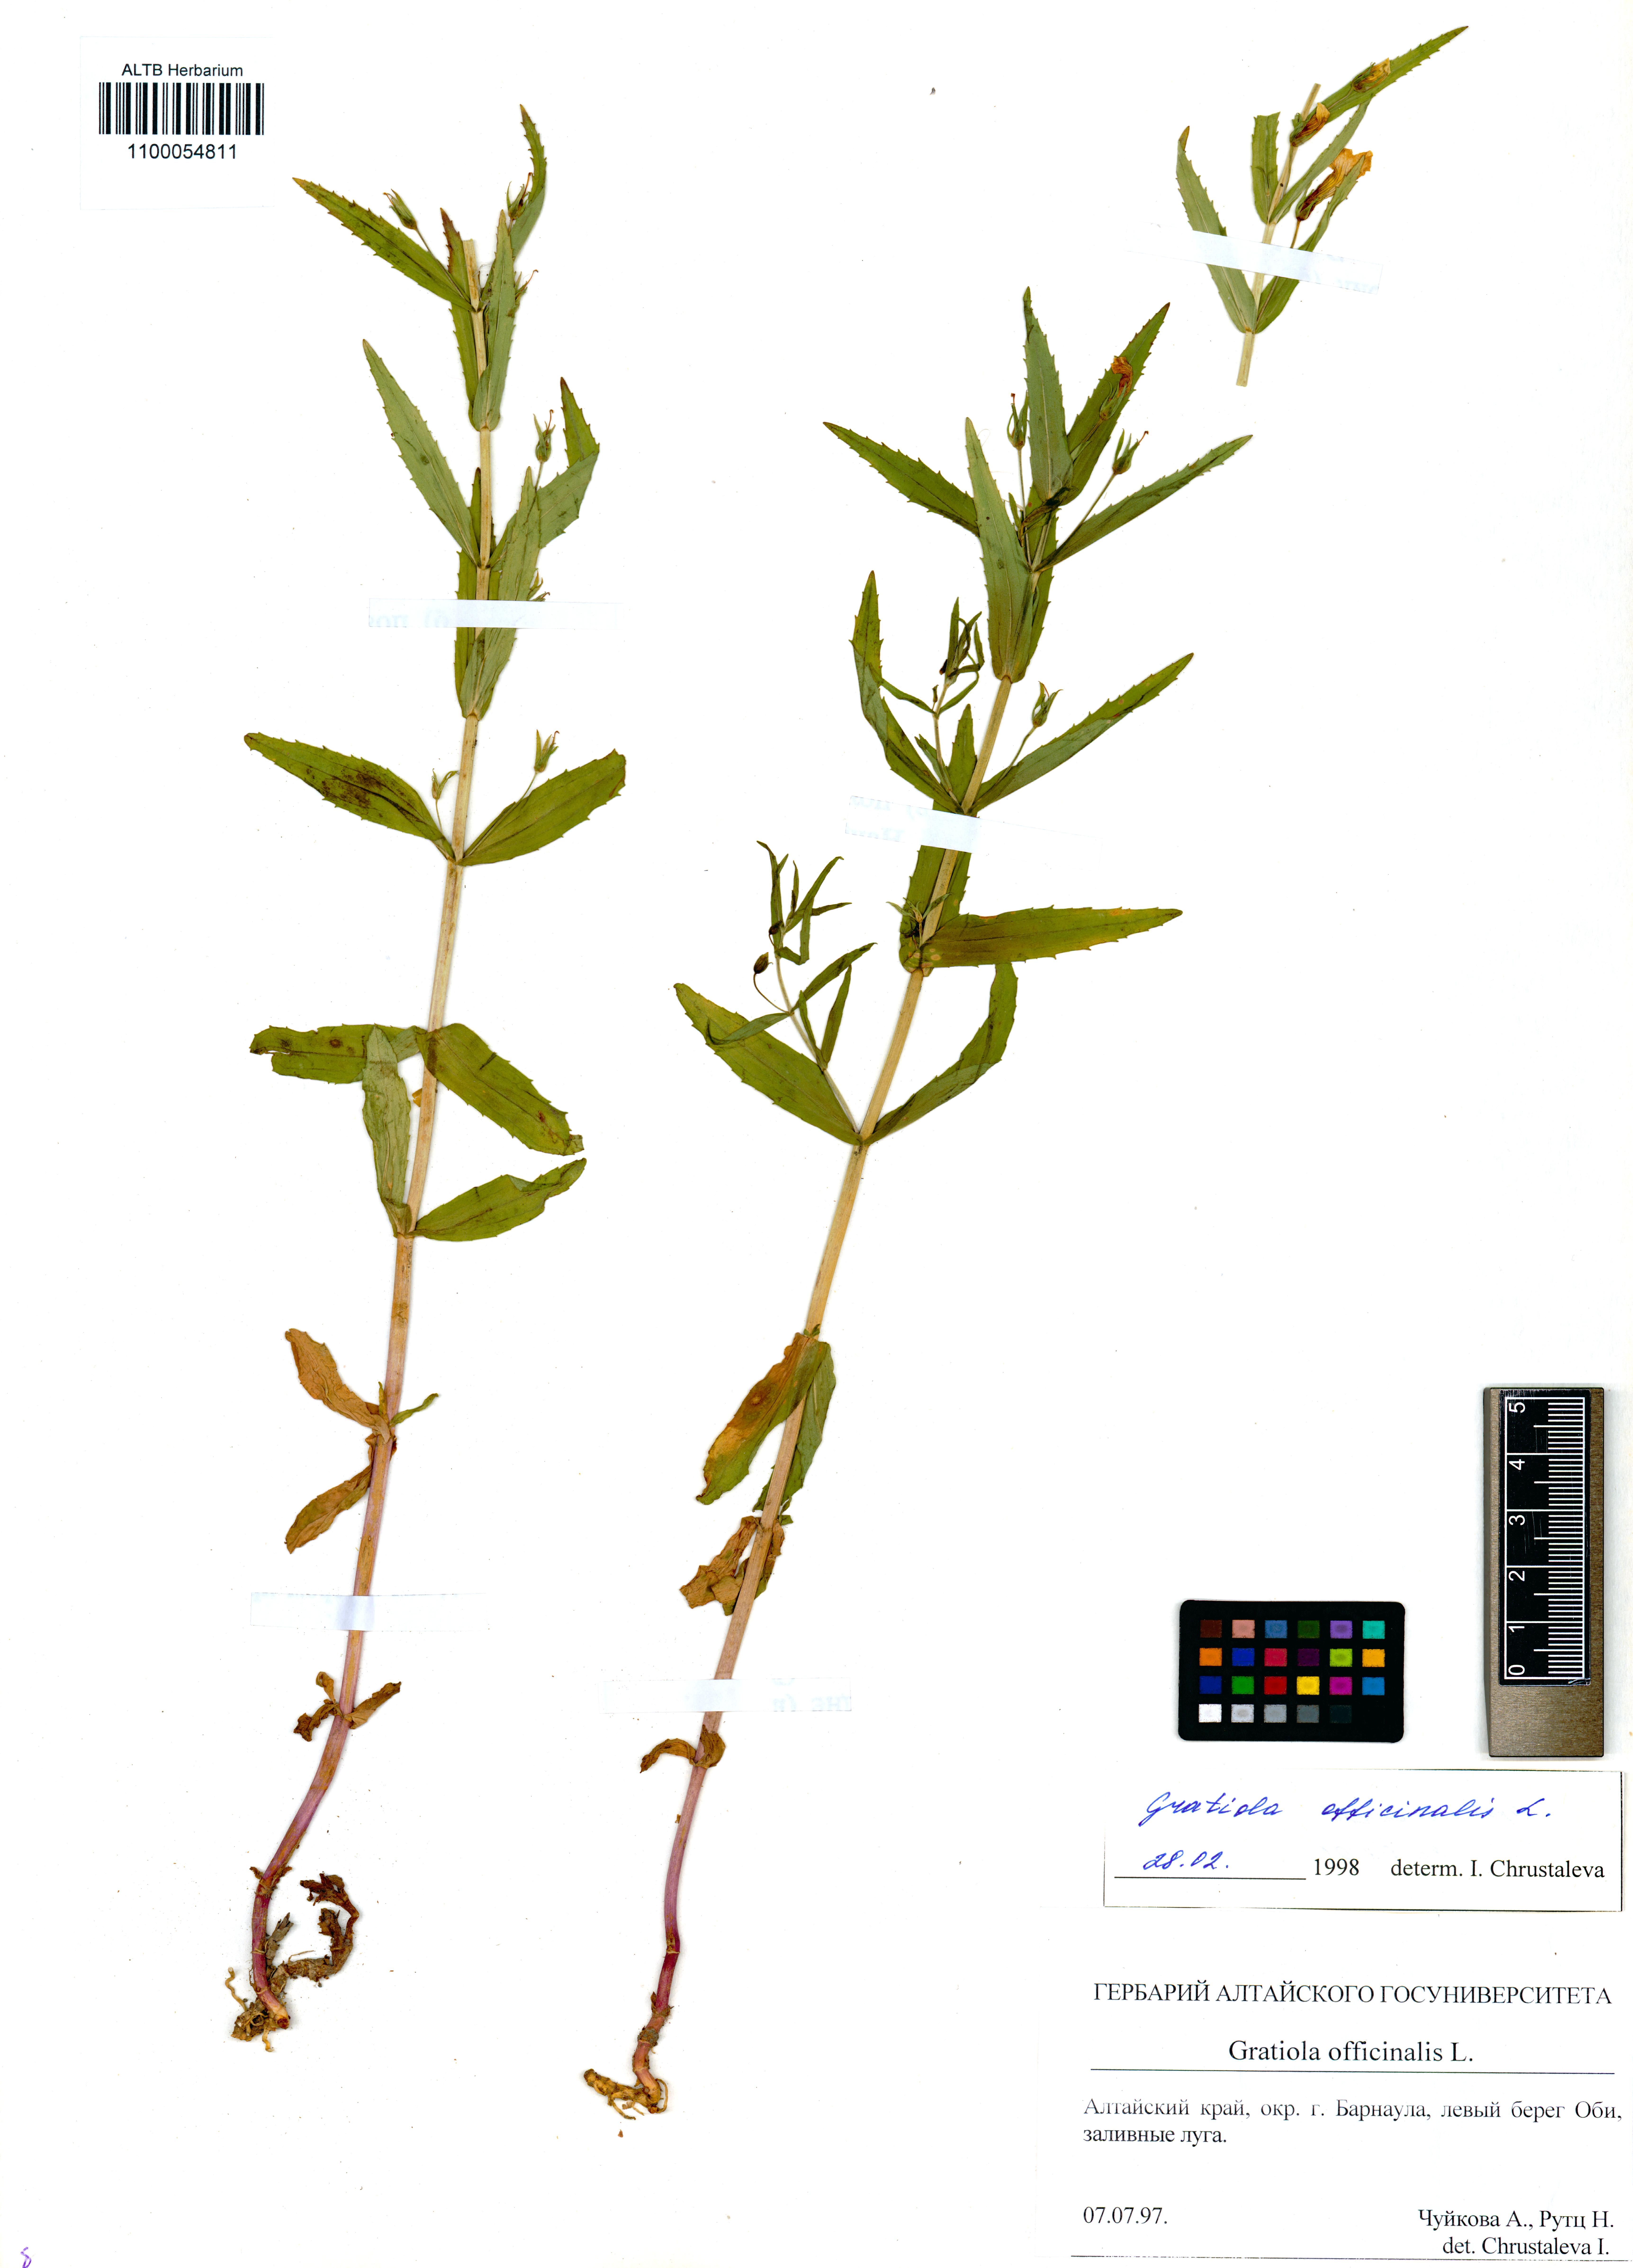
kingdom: Plantae
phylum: Tracheophyta
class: Magnoliopsida
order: Lamiales
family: Plantaginaceae
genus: Gratiola
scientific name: Gratiola officinalis
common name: Gratiola
